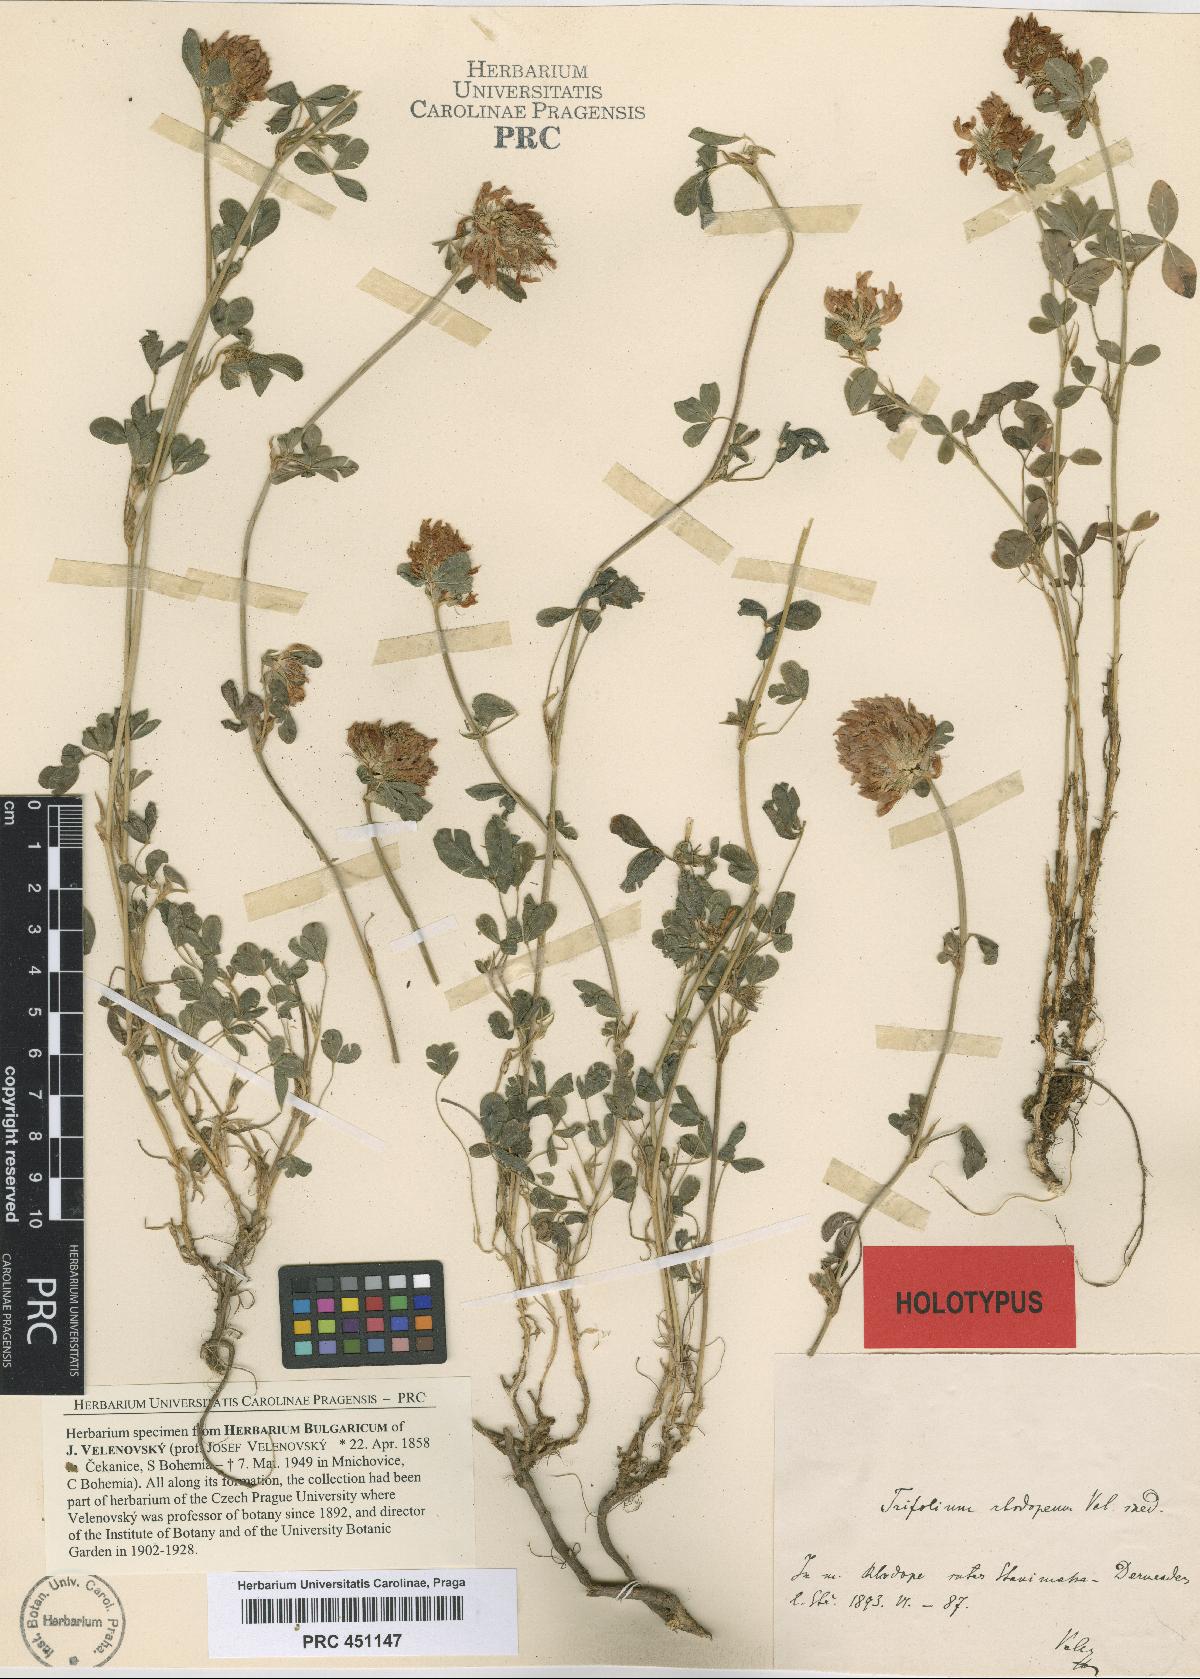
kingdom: Plantae
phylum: Tracheophyta
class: Magnoliopsida
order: Fabales
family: Fabaceae
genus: Trifolium
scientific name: Trifolium
